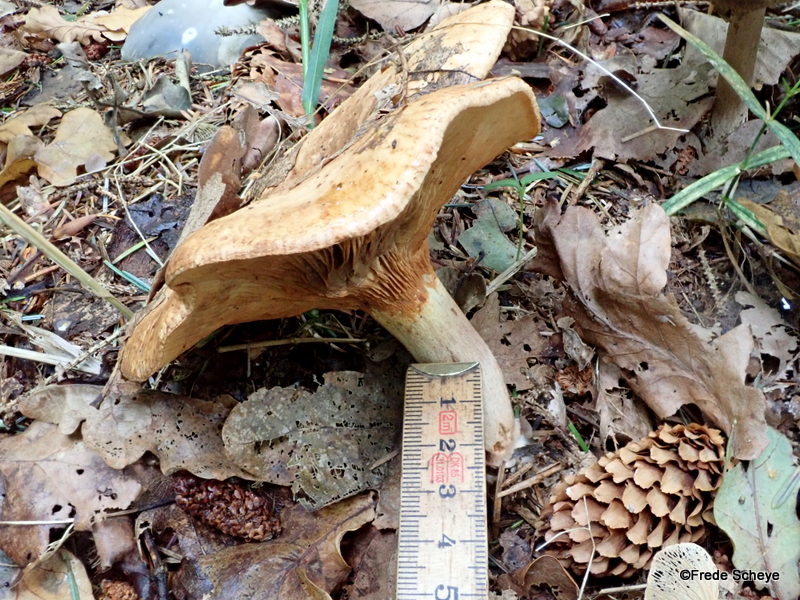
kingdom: Fungi
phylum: Basidiomycota
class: Agaricomycetes
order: Boletales
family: Paxillaceae
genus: Paxillus
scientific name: Paxillus involutus
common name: almindelig netbladhat
